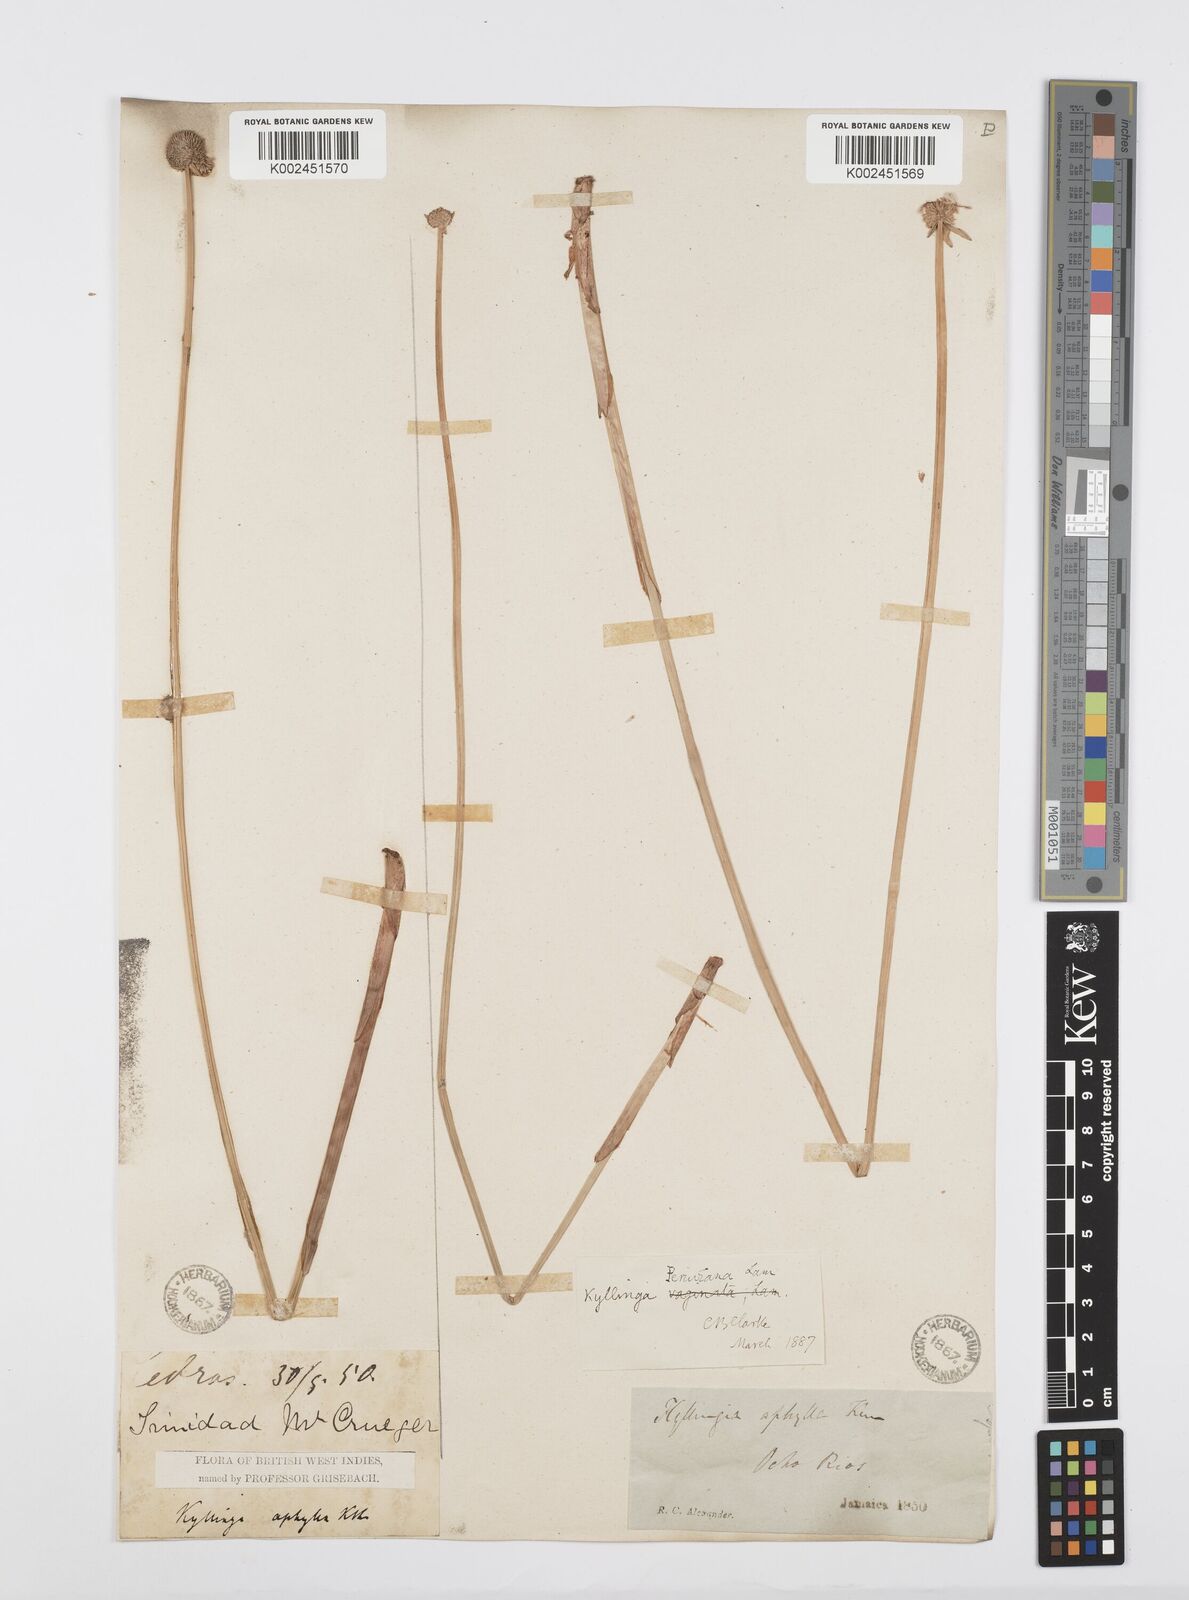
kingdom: Plantae
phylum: Tracheophyta
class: Liliopsida
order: Poales
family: Cyperaceae
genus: Cyperus
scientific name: Cyperus obtusatus
